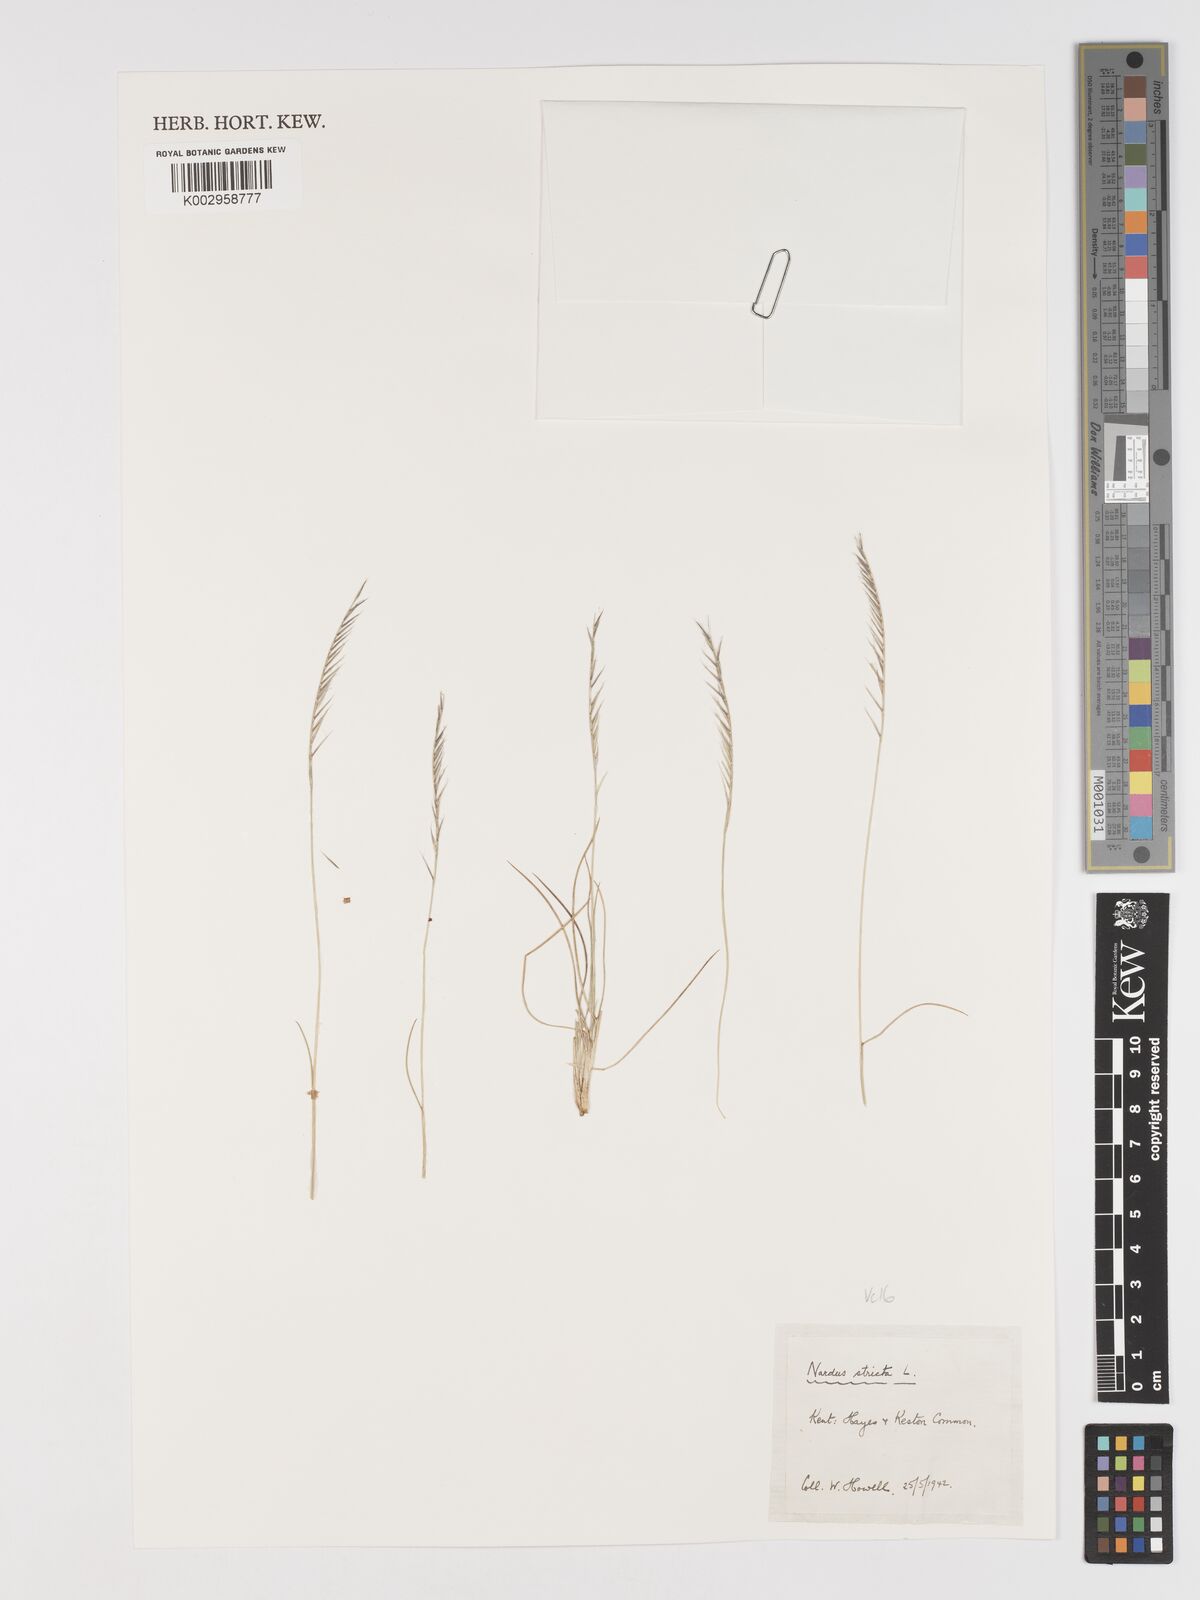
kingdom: Plantae
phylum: Tracheophyta
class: Liliopsida
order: Poales
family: Poaceae
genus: Nardus
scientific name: Nardus stricta
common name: Mat-grass
